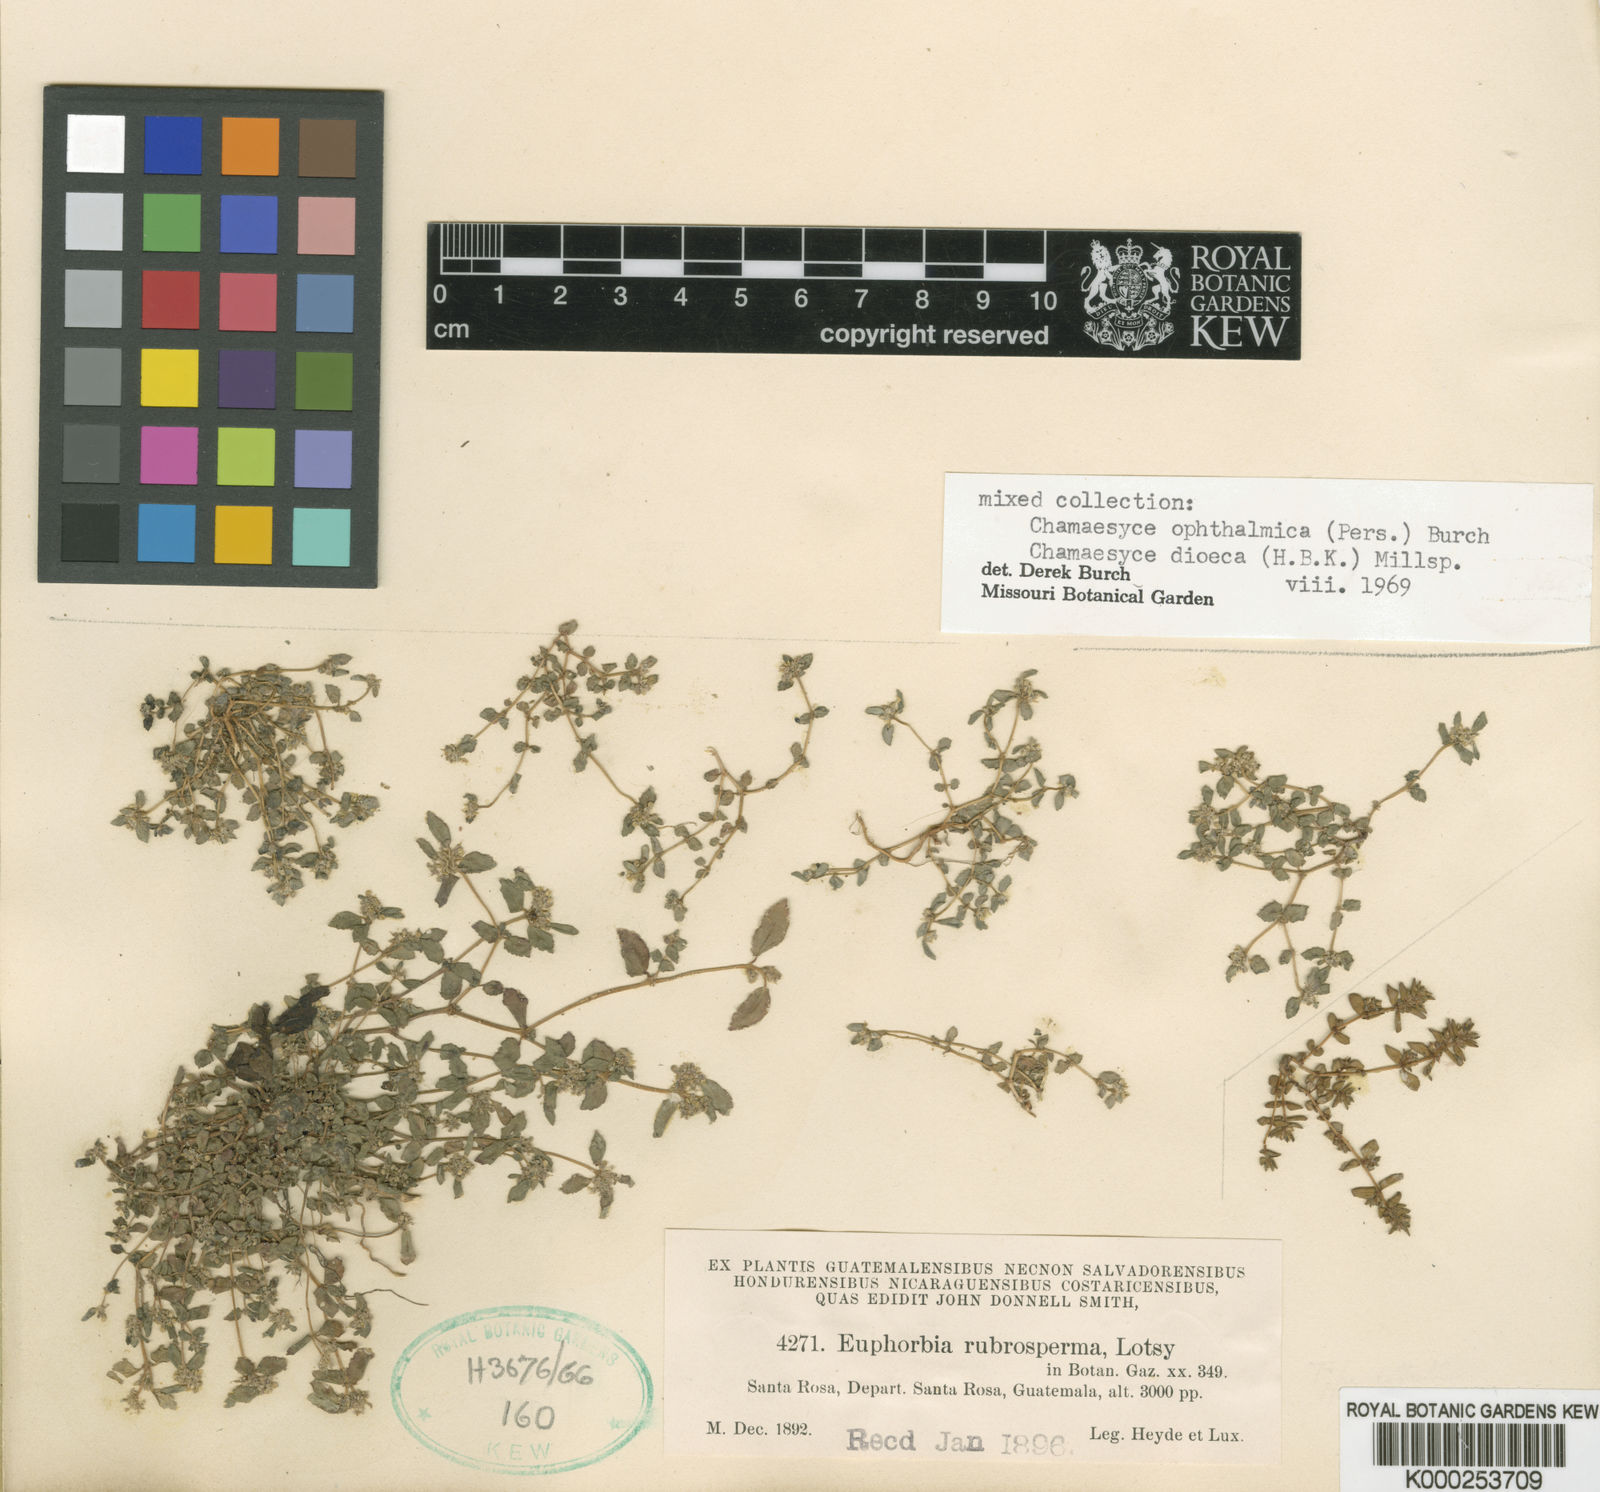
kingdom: Plantae
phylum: Tracheophyta
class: Magnoliopsida
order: Malpighiales
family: Euphorbiaceae
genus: Euphorbia
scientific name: Euphorbia thymifolia
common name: Gulf sandmat
